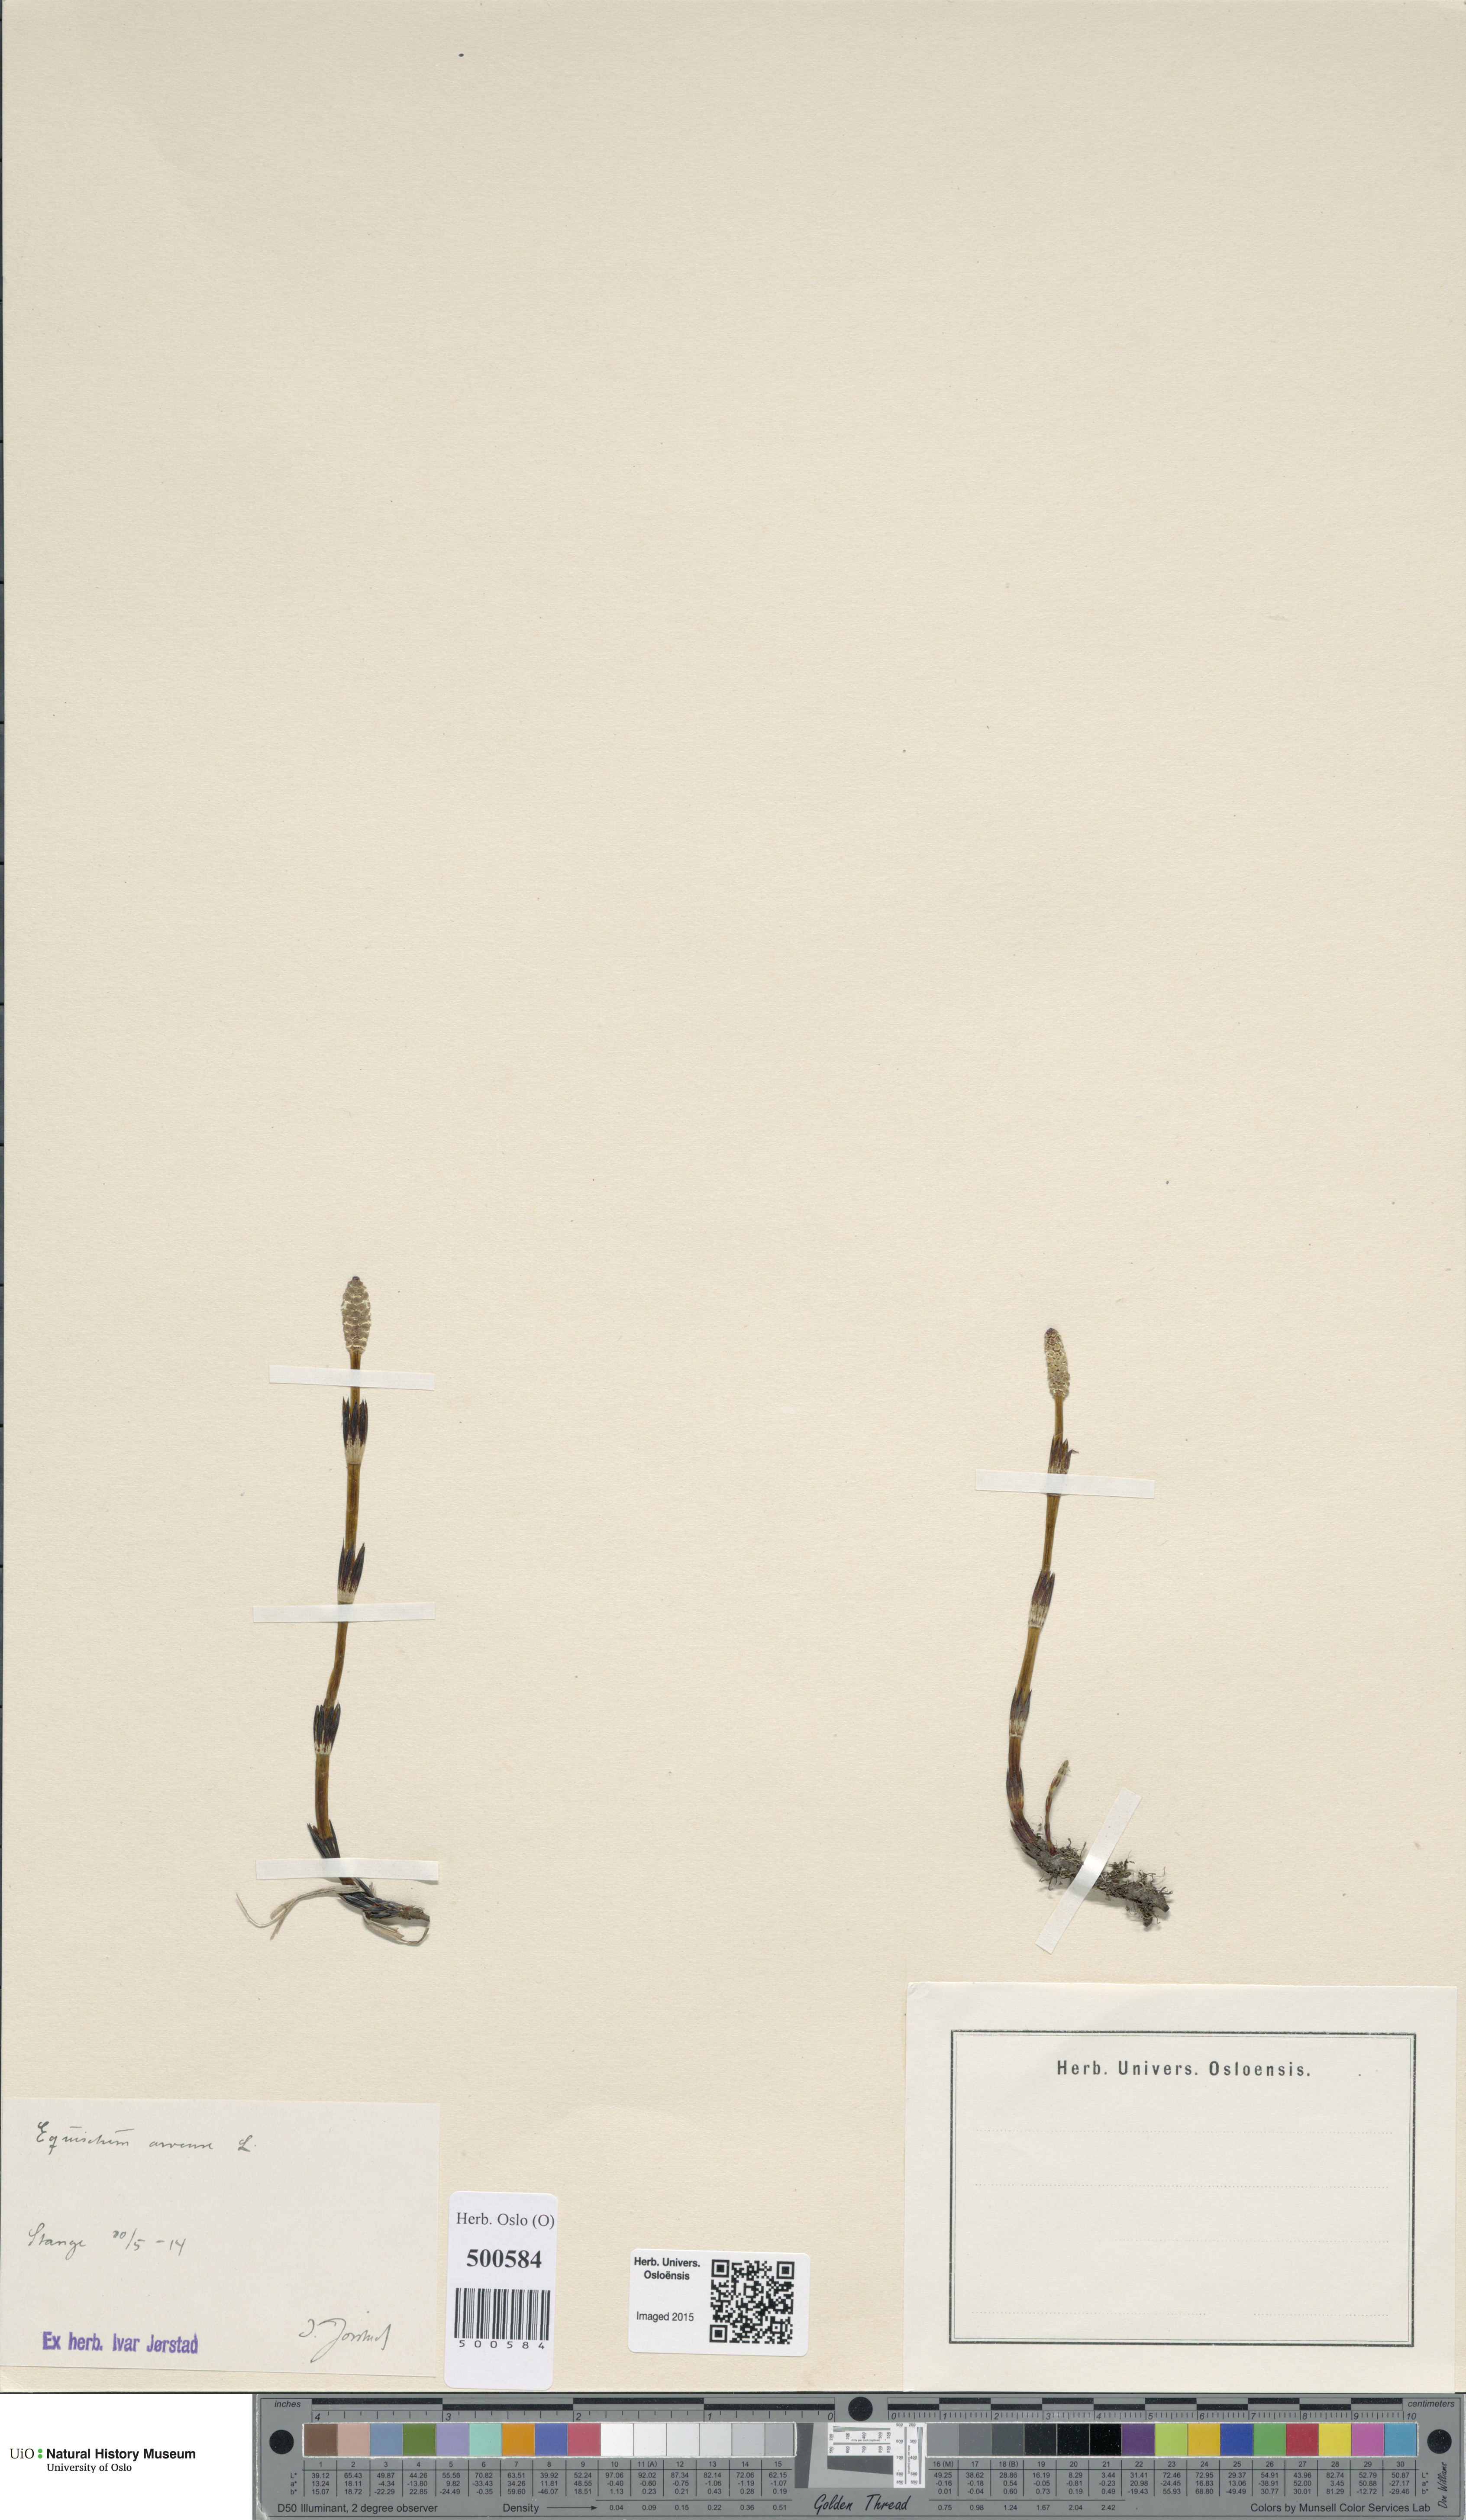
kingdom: Plantae
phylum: Tracheophyta
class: Polypodiopsida
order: Equisetales
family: Equisetaceae
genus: Equisetum
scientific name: Equisetum arvense
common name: Field horsetail
